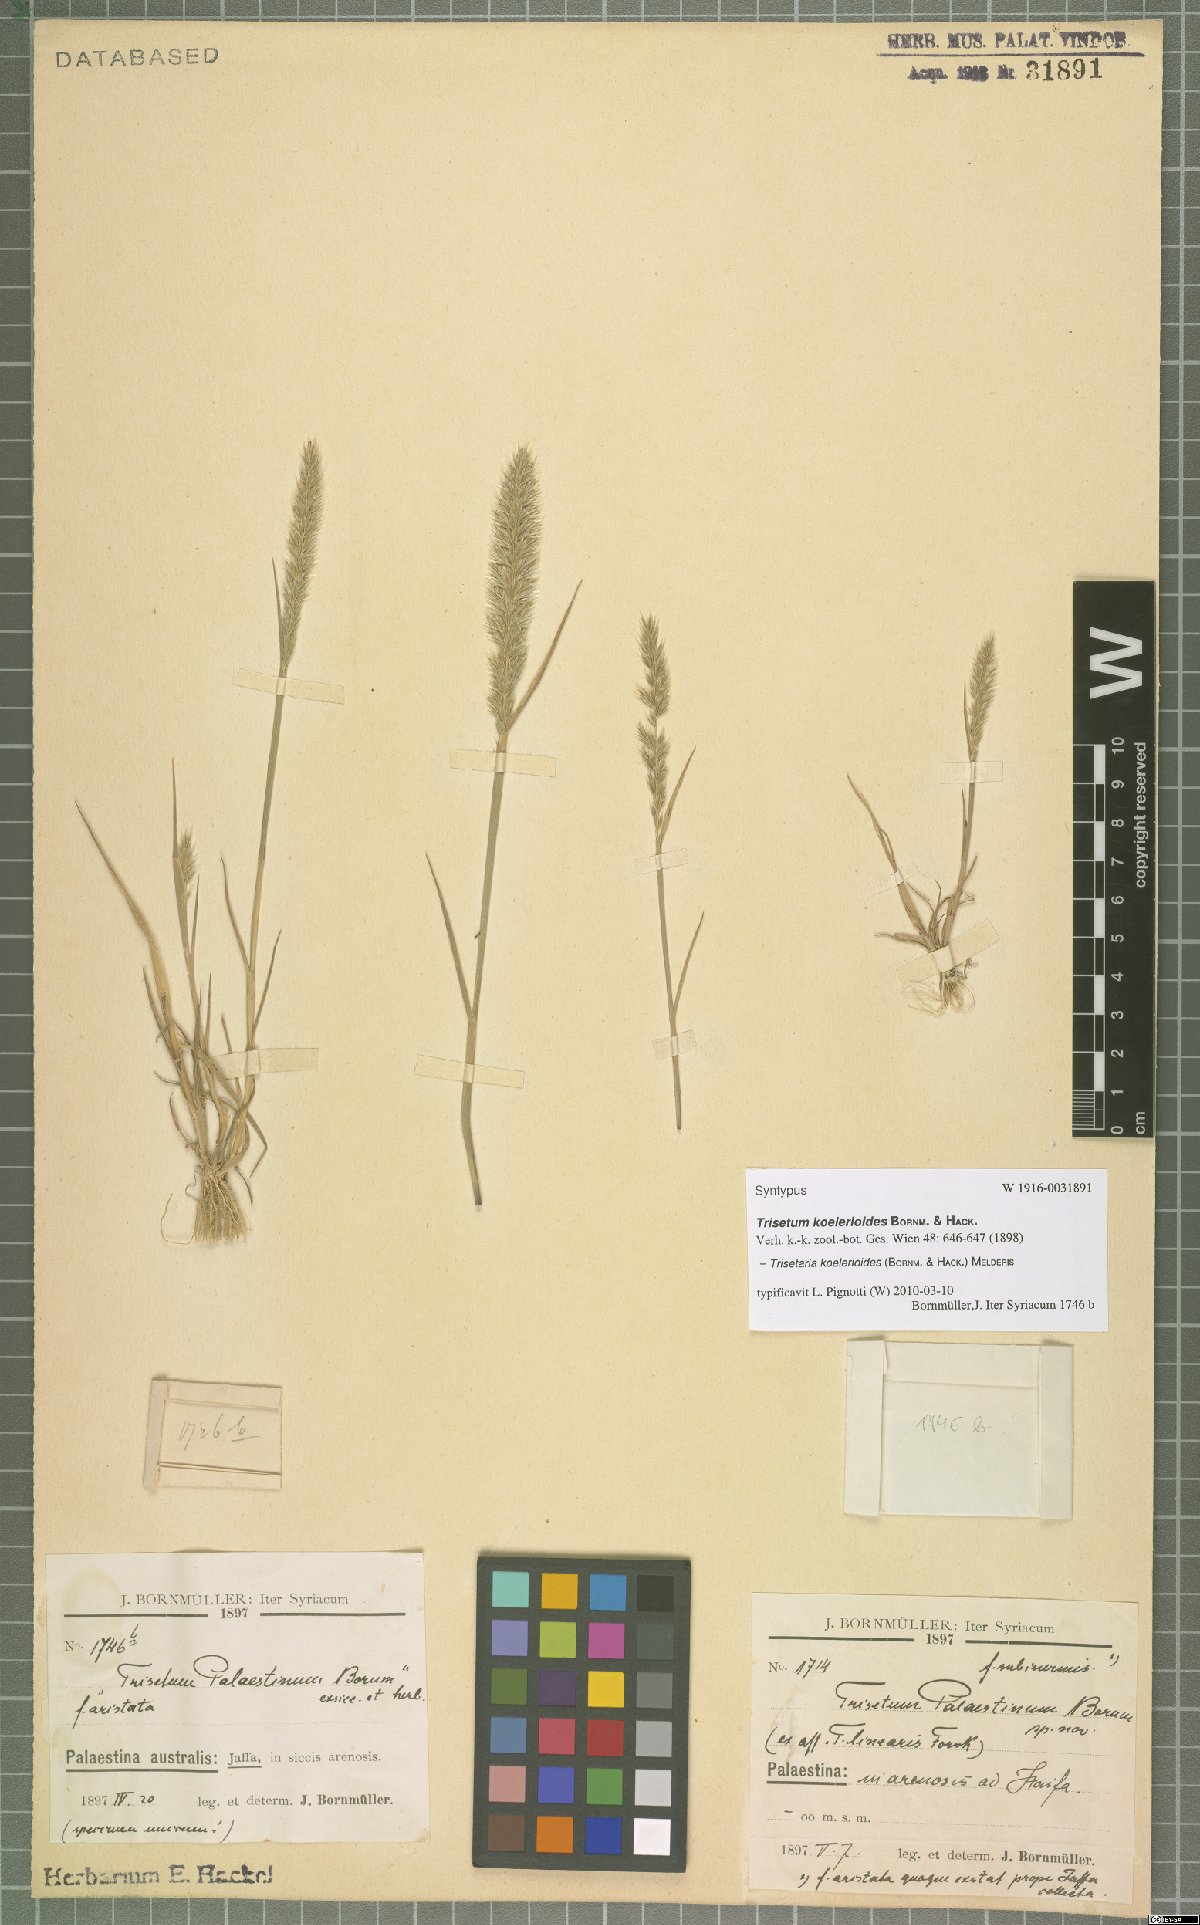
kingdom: Plantae
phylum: Tracheophyta
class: Liliopsida
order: Poales
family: Poaceae
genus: Trisetaria
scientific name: Trisetaria koelerioides
